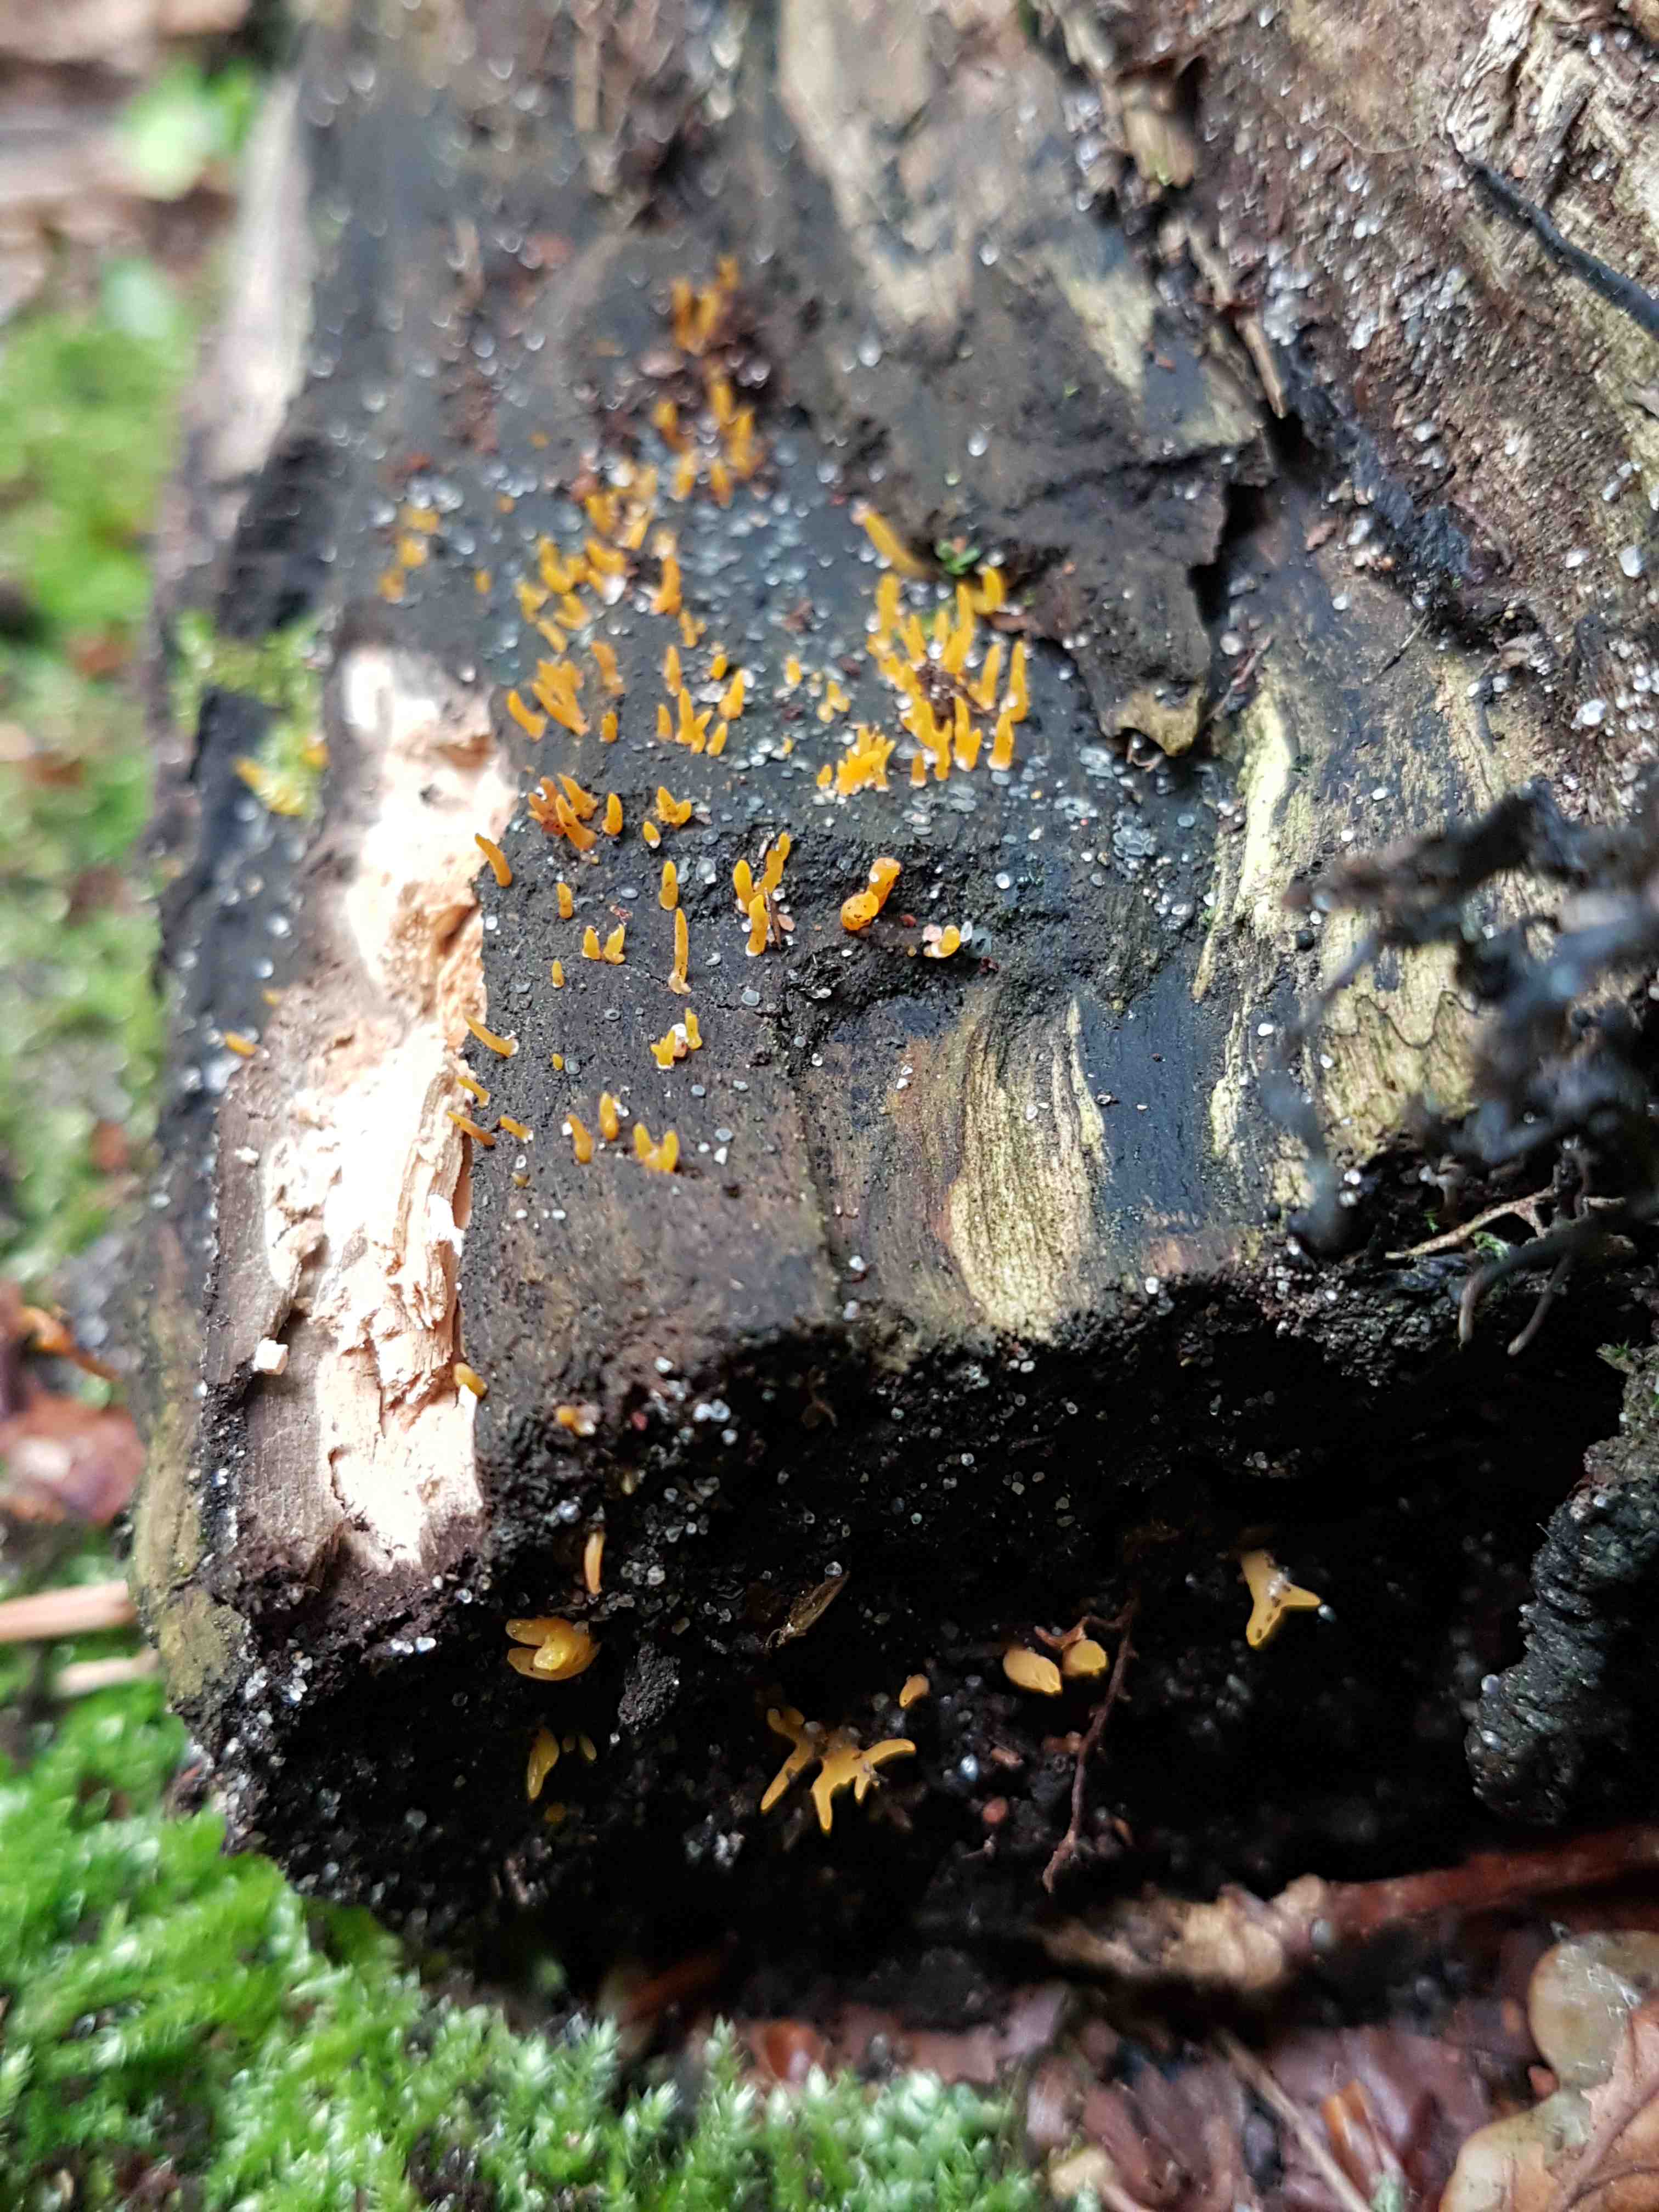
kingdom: Fungi
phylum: Basidiomycota
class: Dacrymycetes
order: Dacrymycetales
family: Dacrymycetaceae
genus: Calocera
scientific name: Calocera cornea
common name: liden guldgaffel
